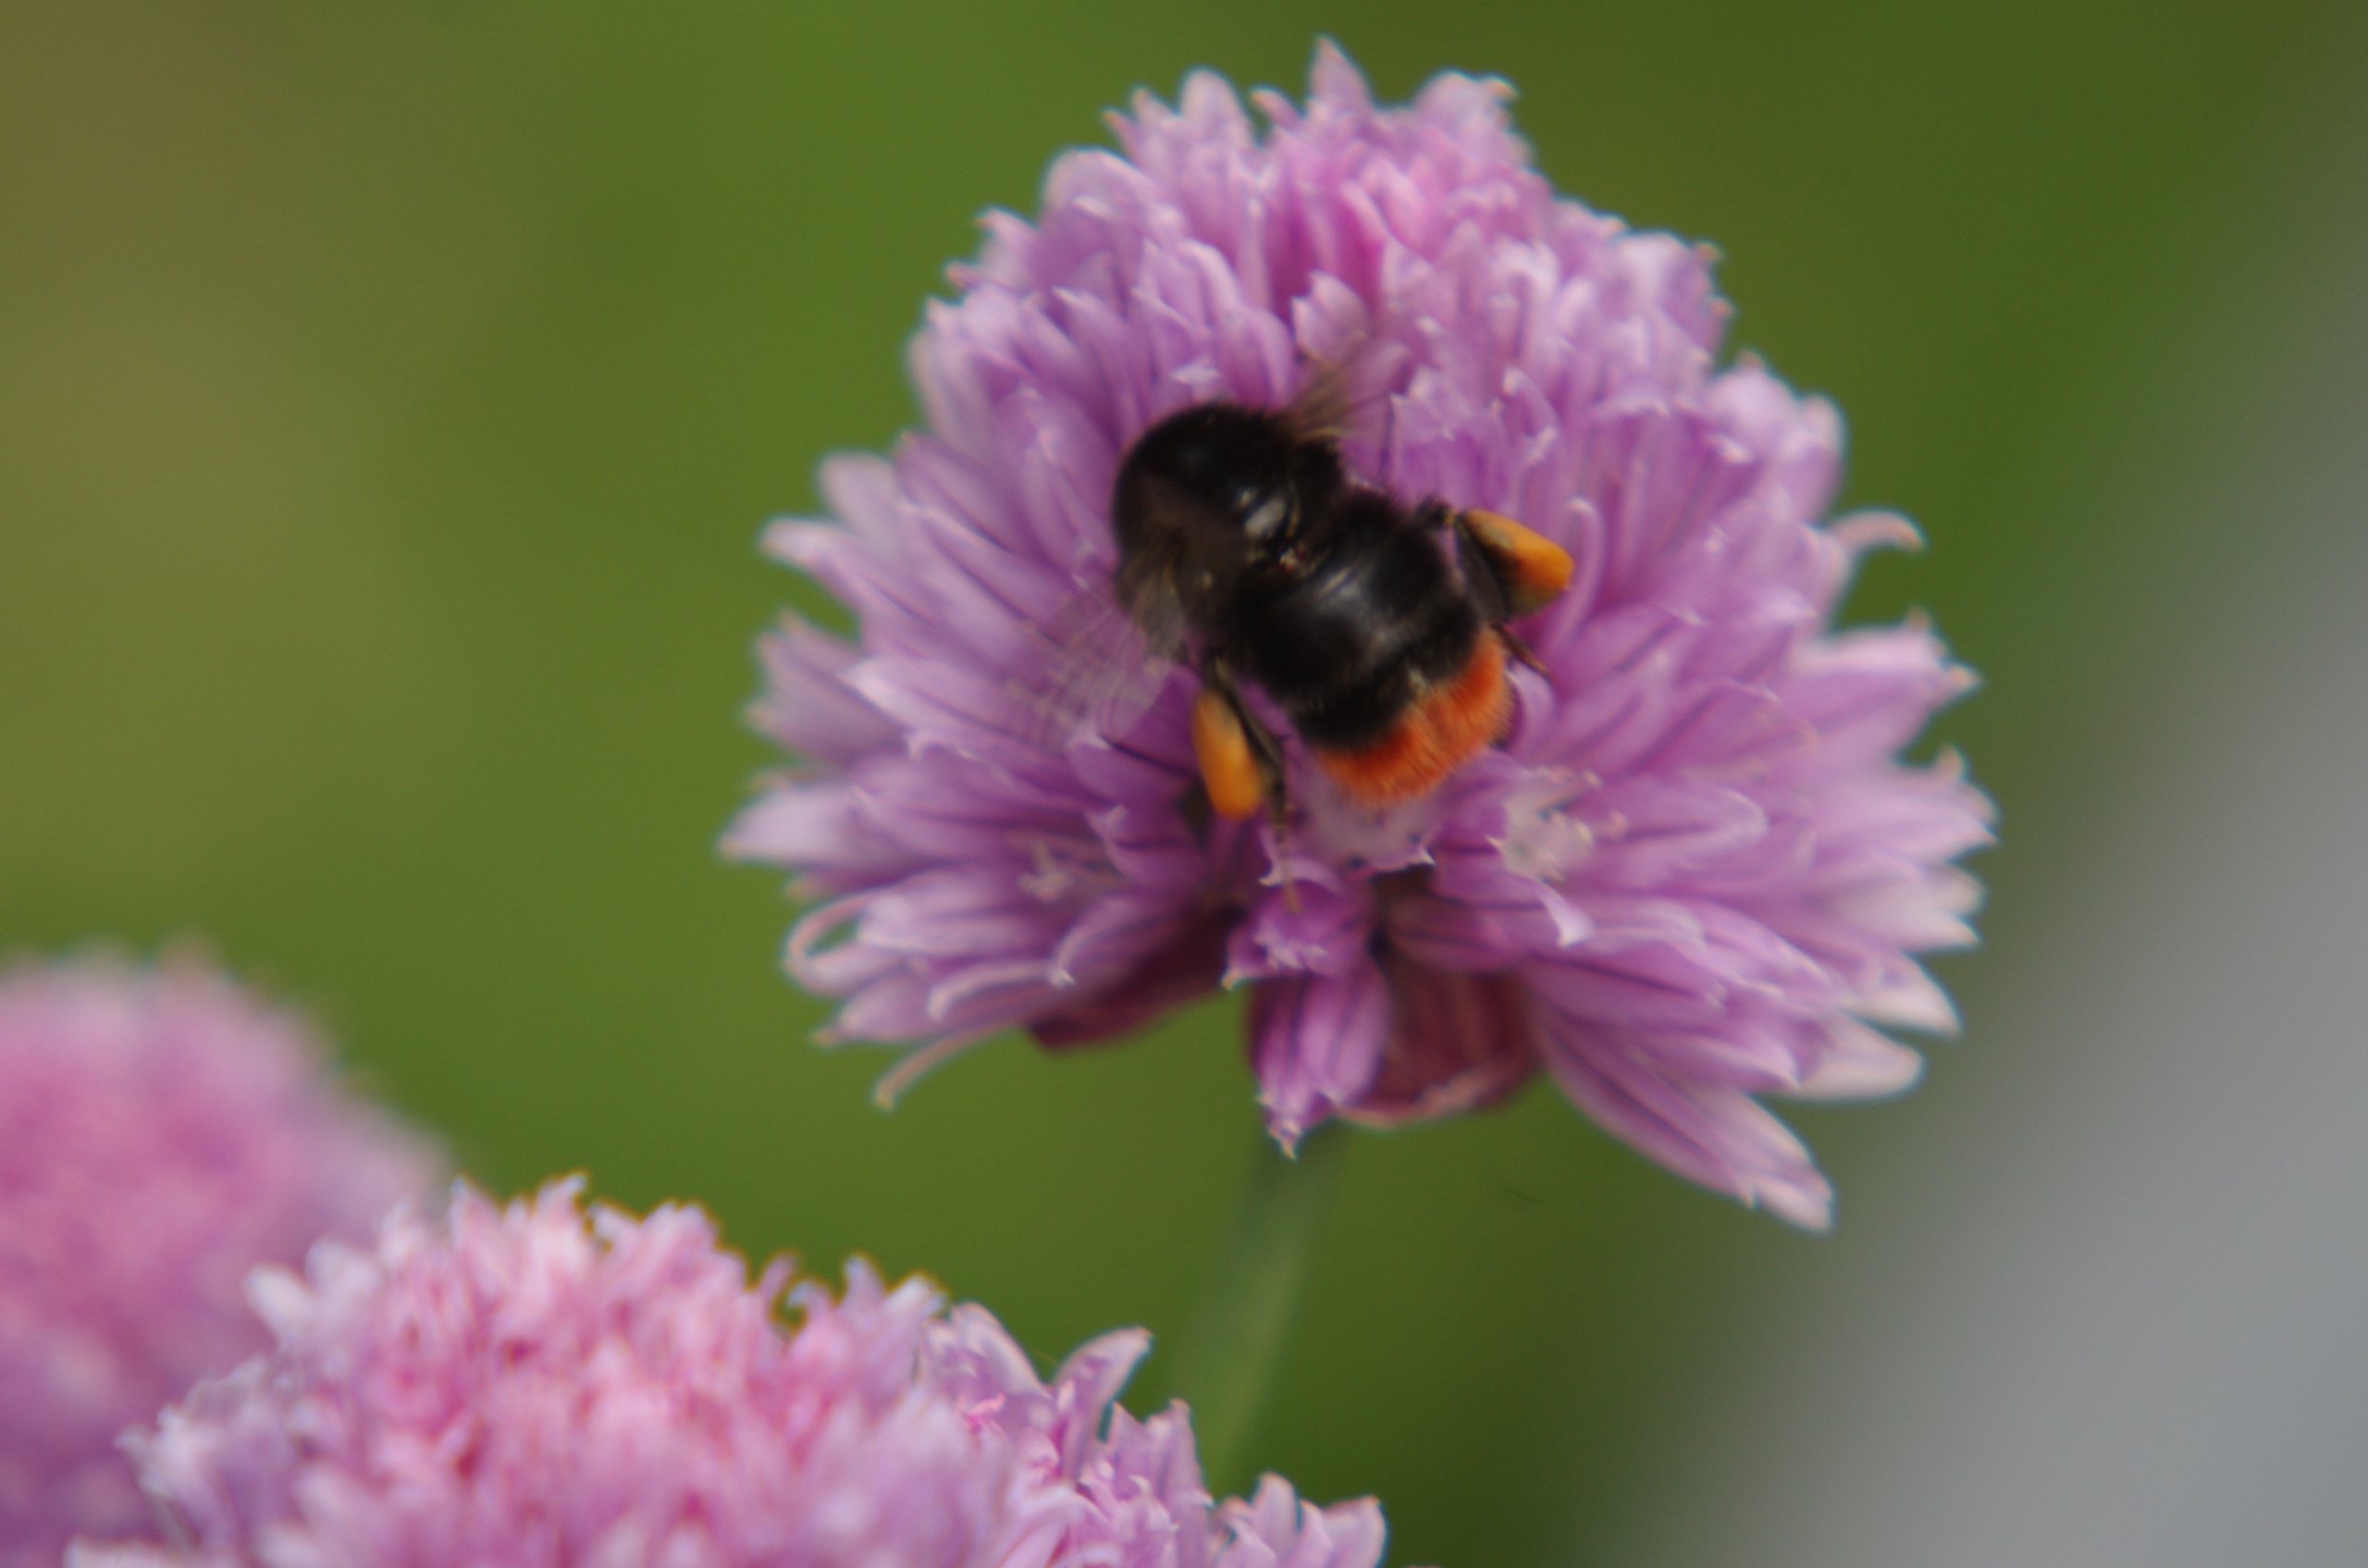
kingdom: Animalia
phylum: Arthropoda
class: Insecta
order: Hymenoptera
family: Apidae
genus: Bombus
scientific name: Bombus lapidarius
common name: Stenhumle
